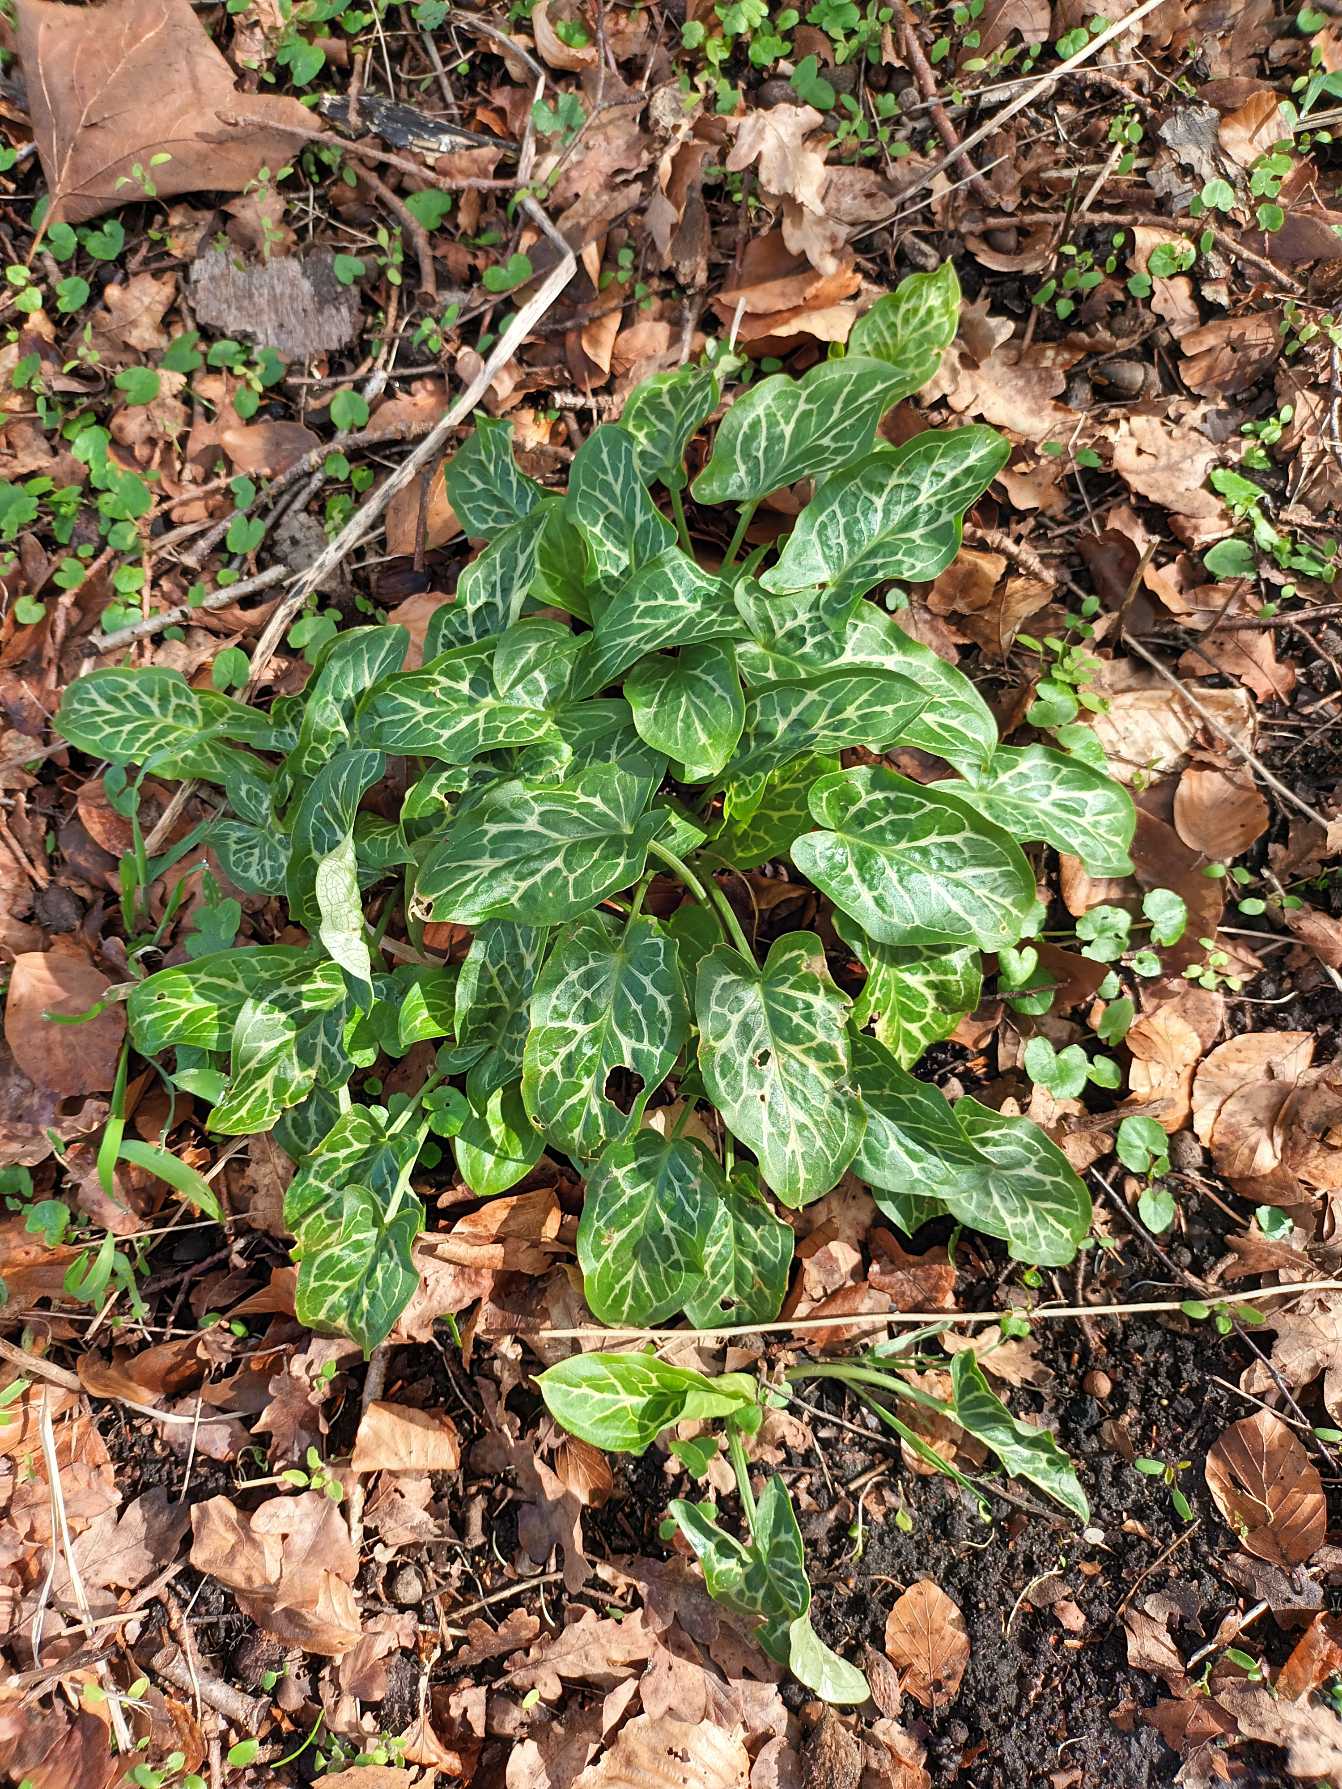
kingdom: Plantae
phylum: Tracheophyta
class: Liliopsida
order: Alismatales
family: Araceae
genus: Arum
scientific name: Arum italicum
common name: Italiensk arum
